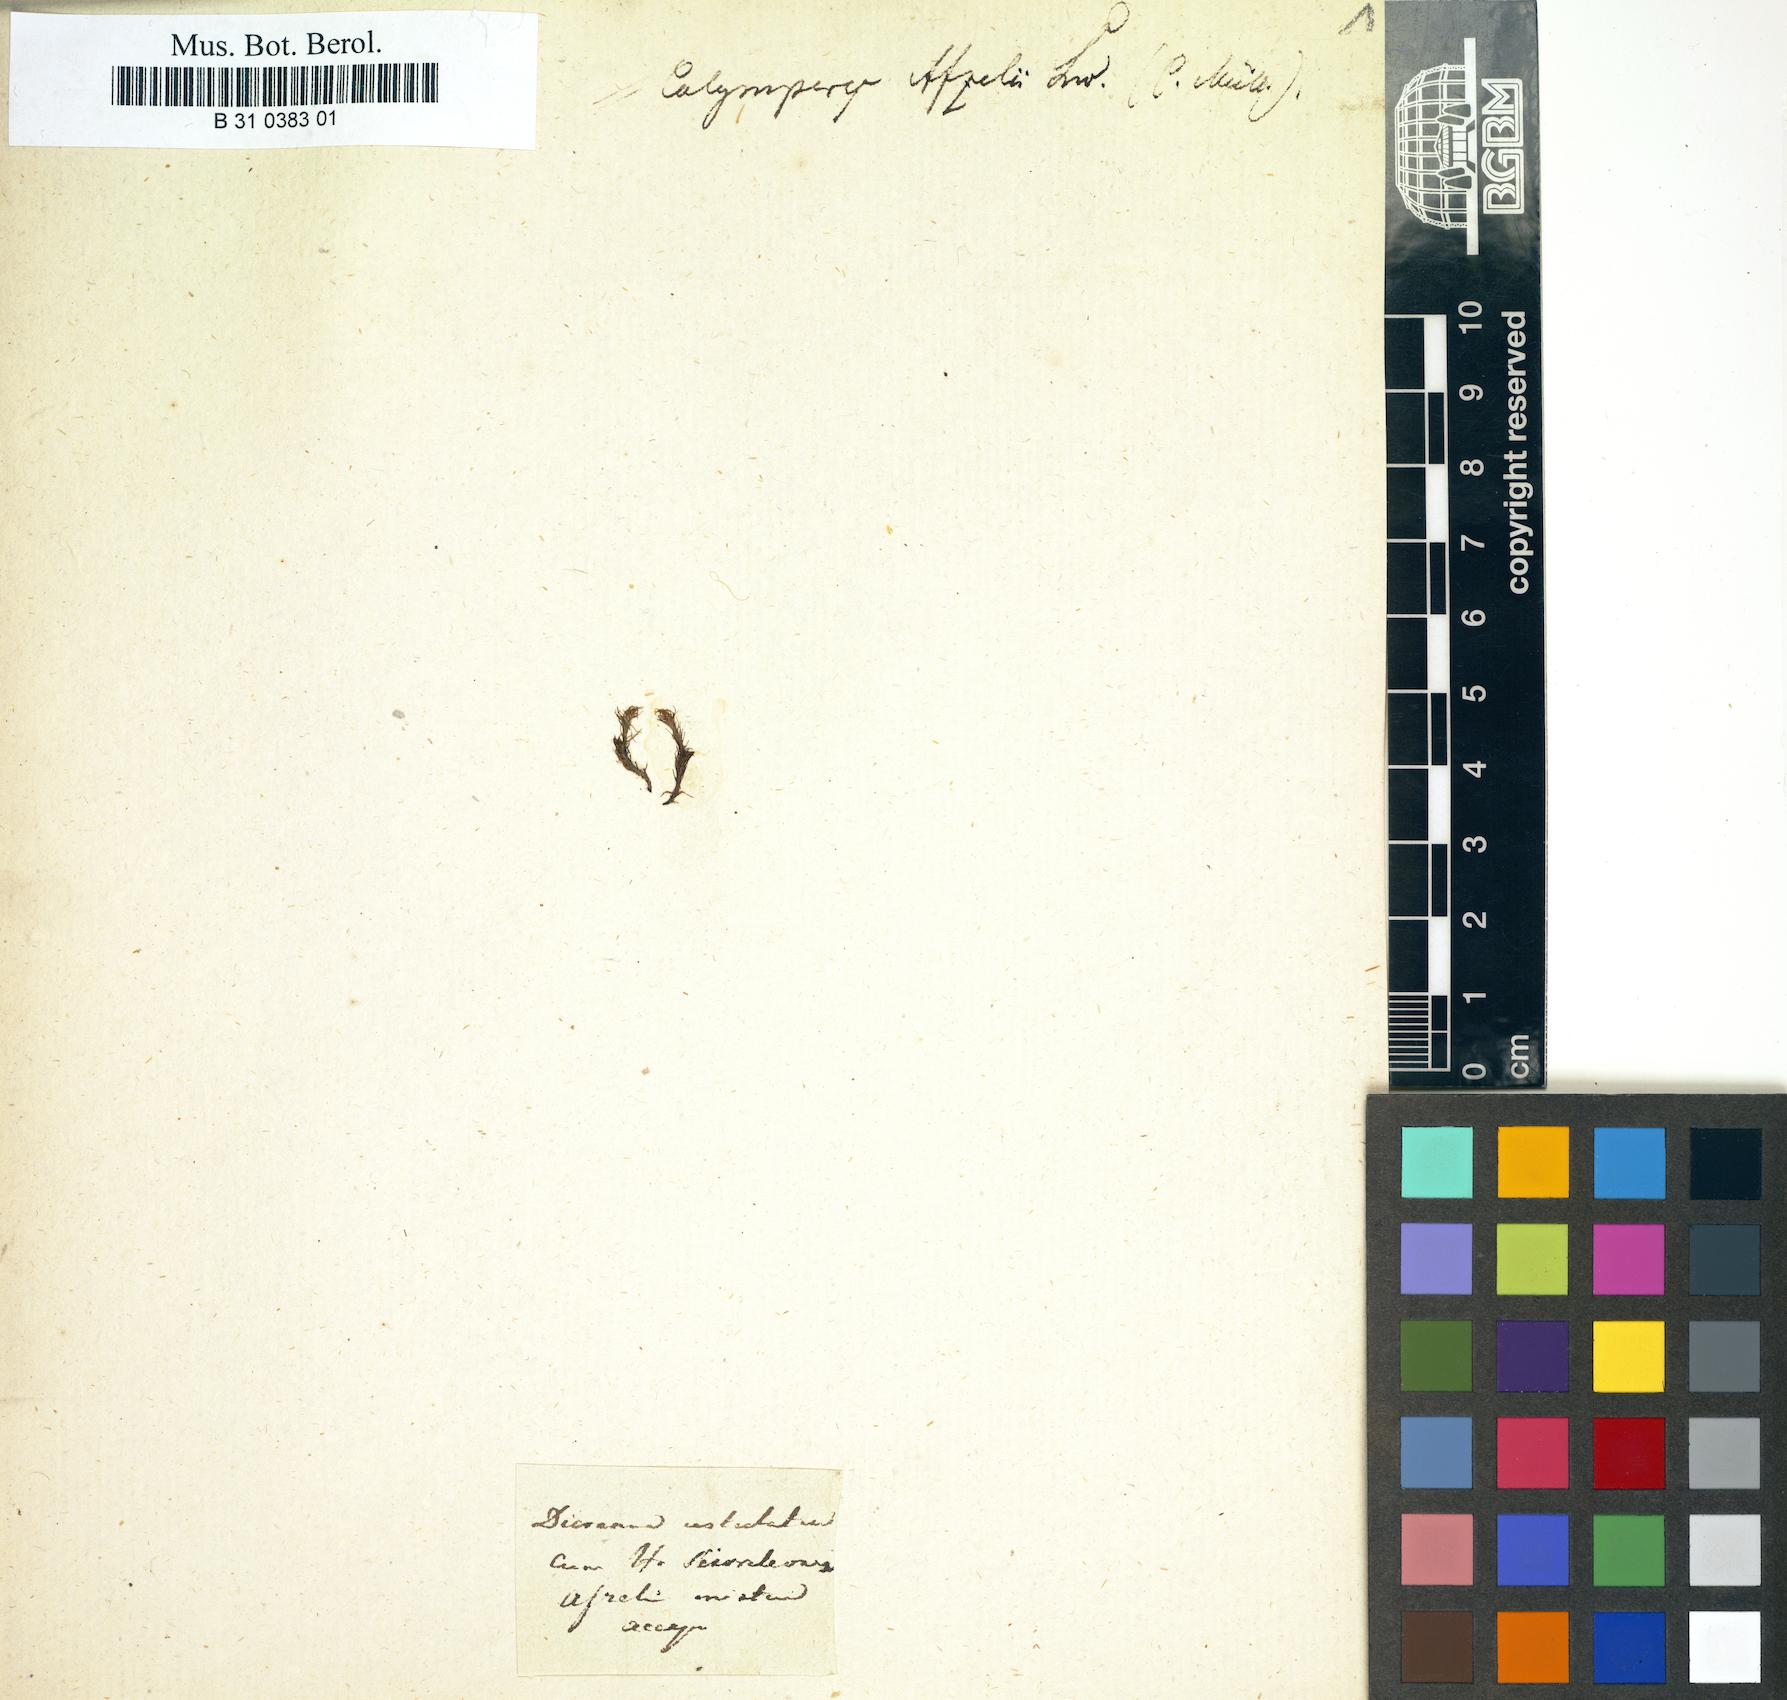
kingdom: Plantae
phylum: Bryophyta
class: Bryopsida
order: Dicranales
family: Calymperaceae
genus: Calymperes
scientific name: Calymperes afzelii
